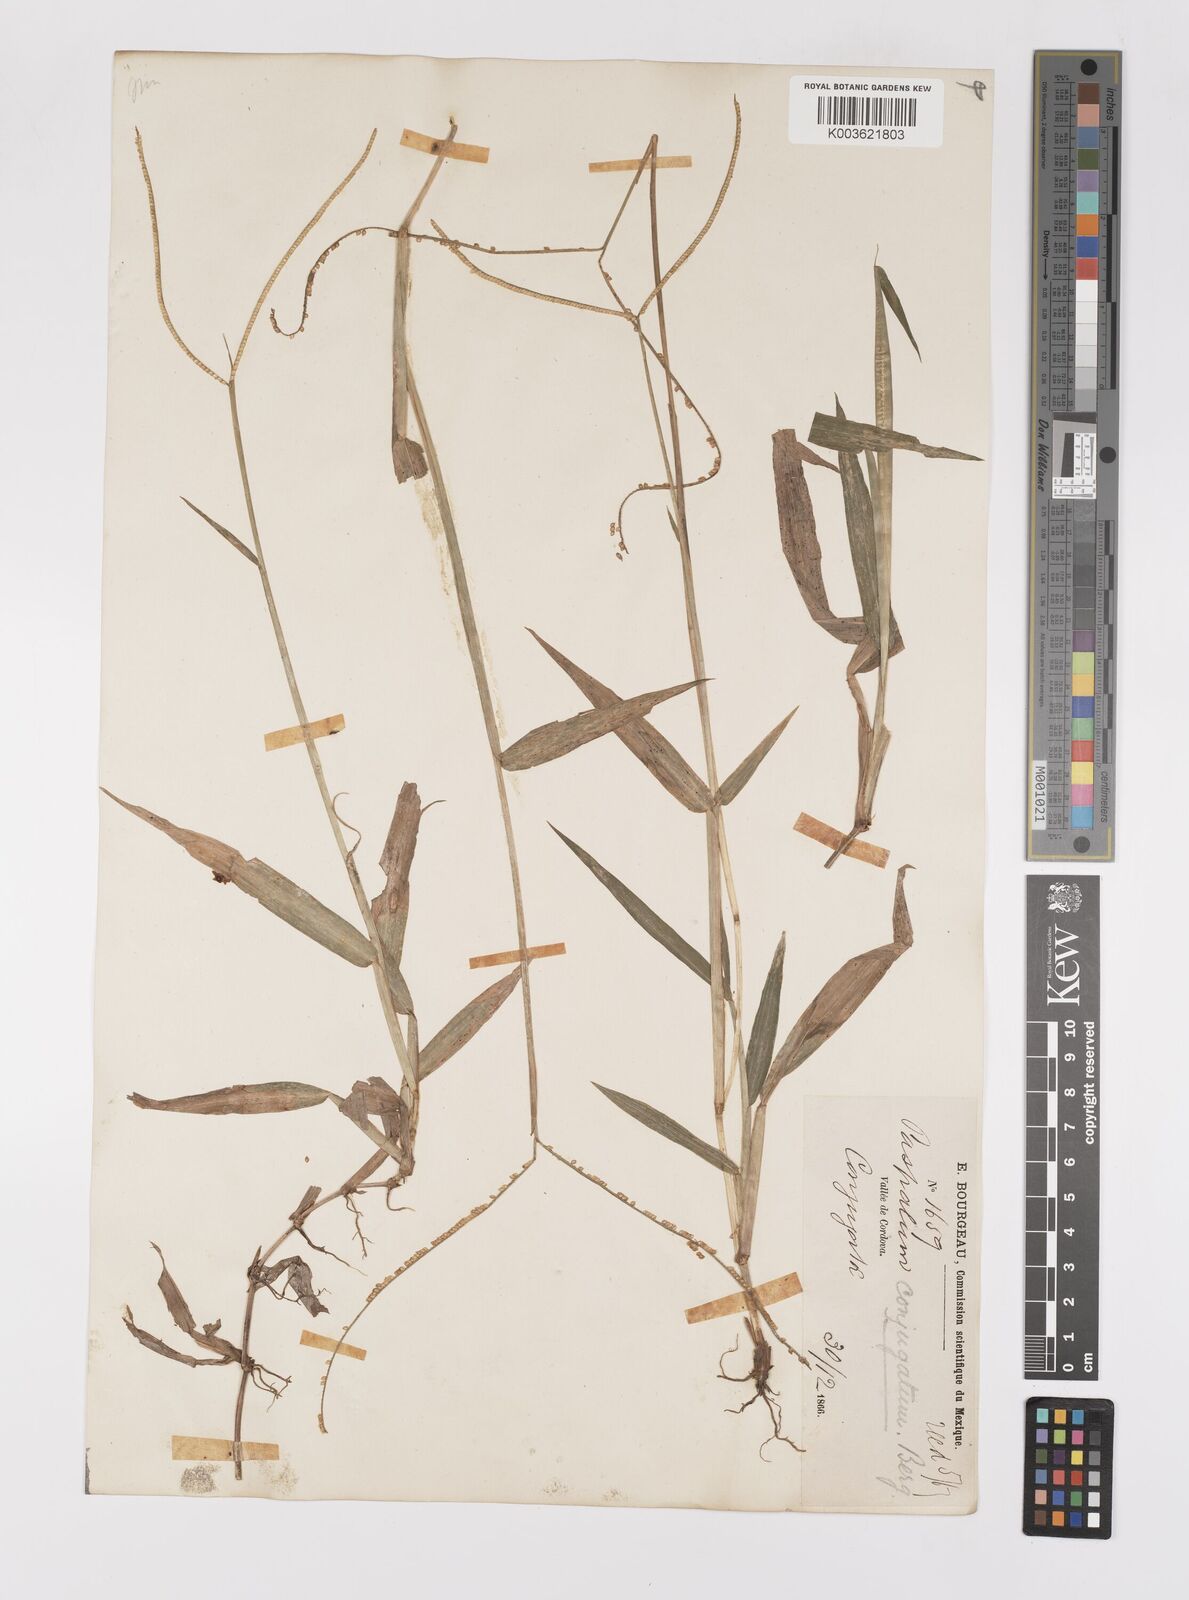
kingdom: Plantae
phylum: Tracheophyta
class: Liliopsida
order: Poales
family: Poaceae
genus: Paspalum
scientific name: Paspalum conjugatum
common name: Hilograss
